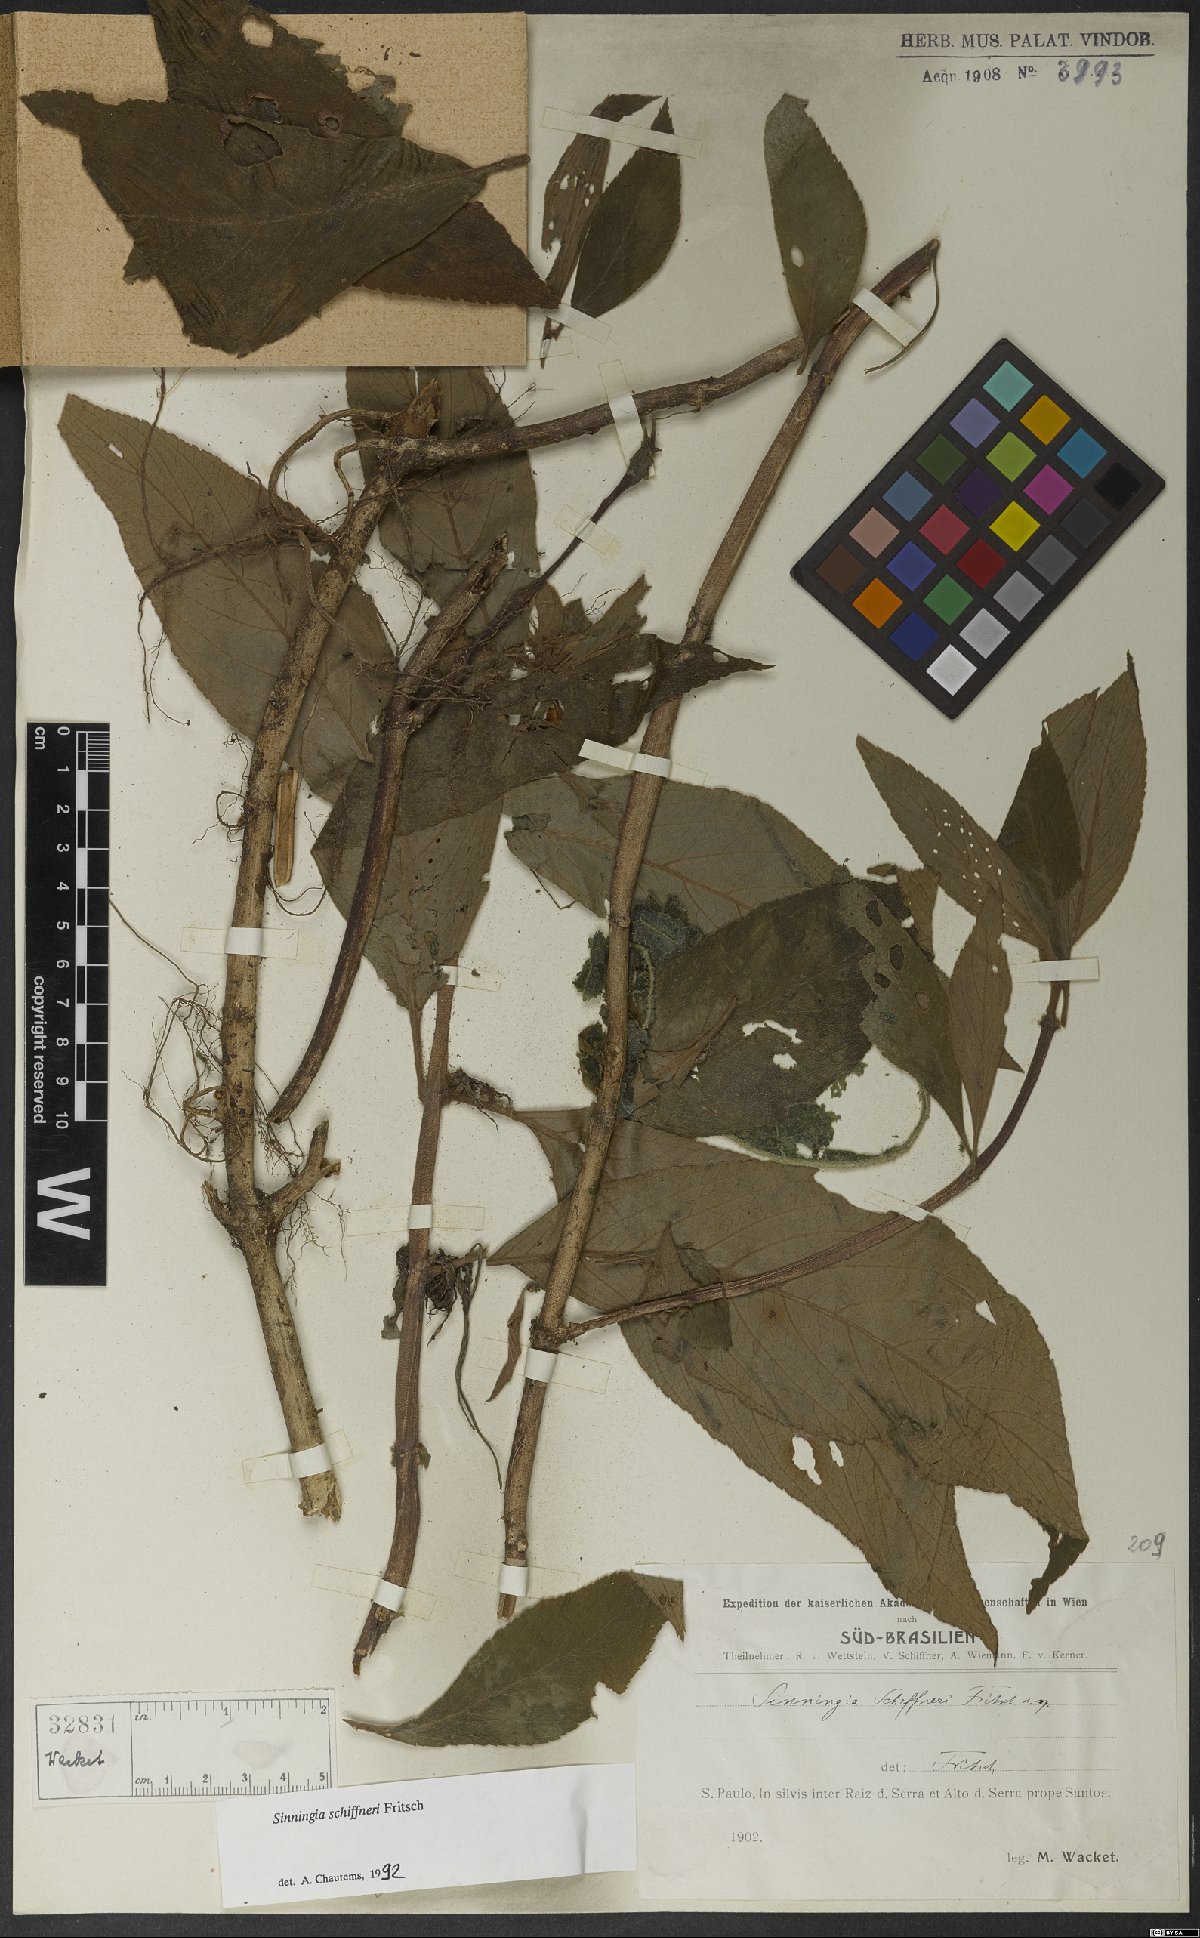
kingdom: Plantae
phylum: Tracheophyta
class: Magnoliopsida
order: Lamiales
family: Gesneriaceae
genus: Sinningia
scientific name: Sinningia schiffneri
